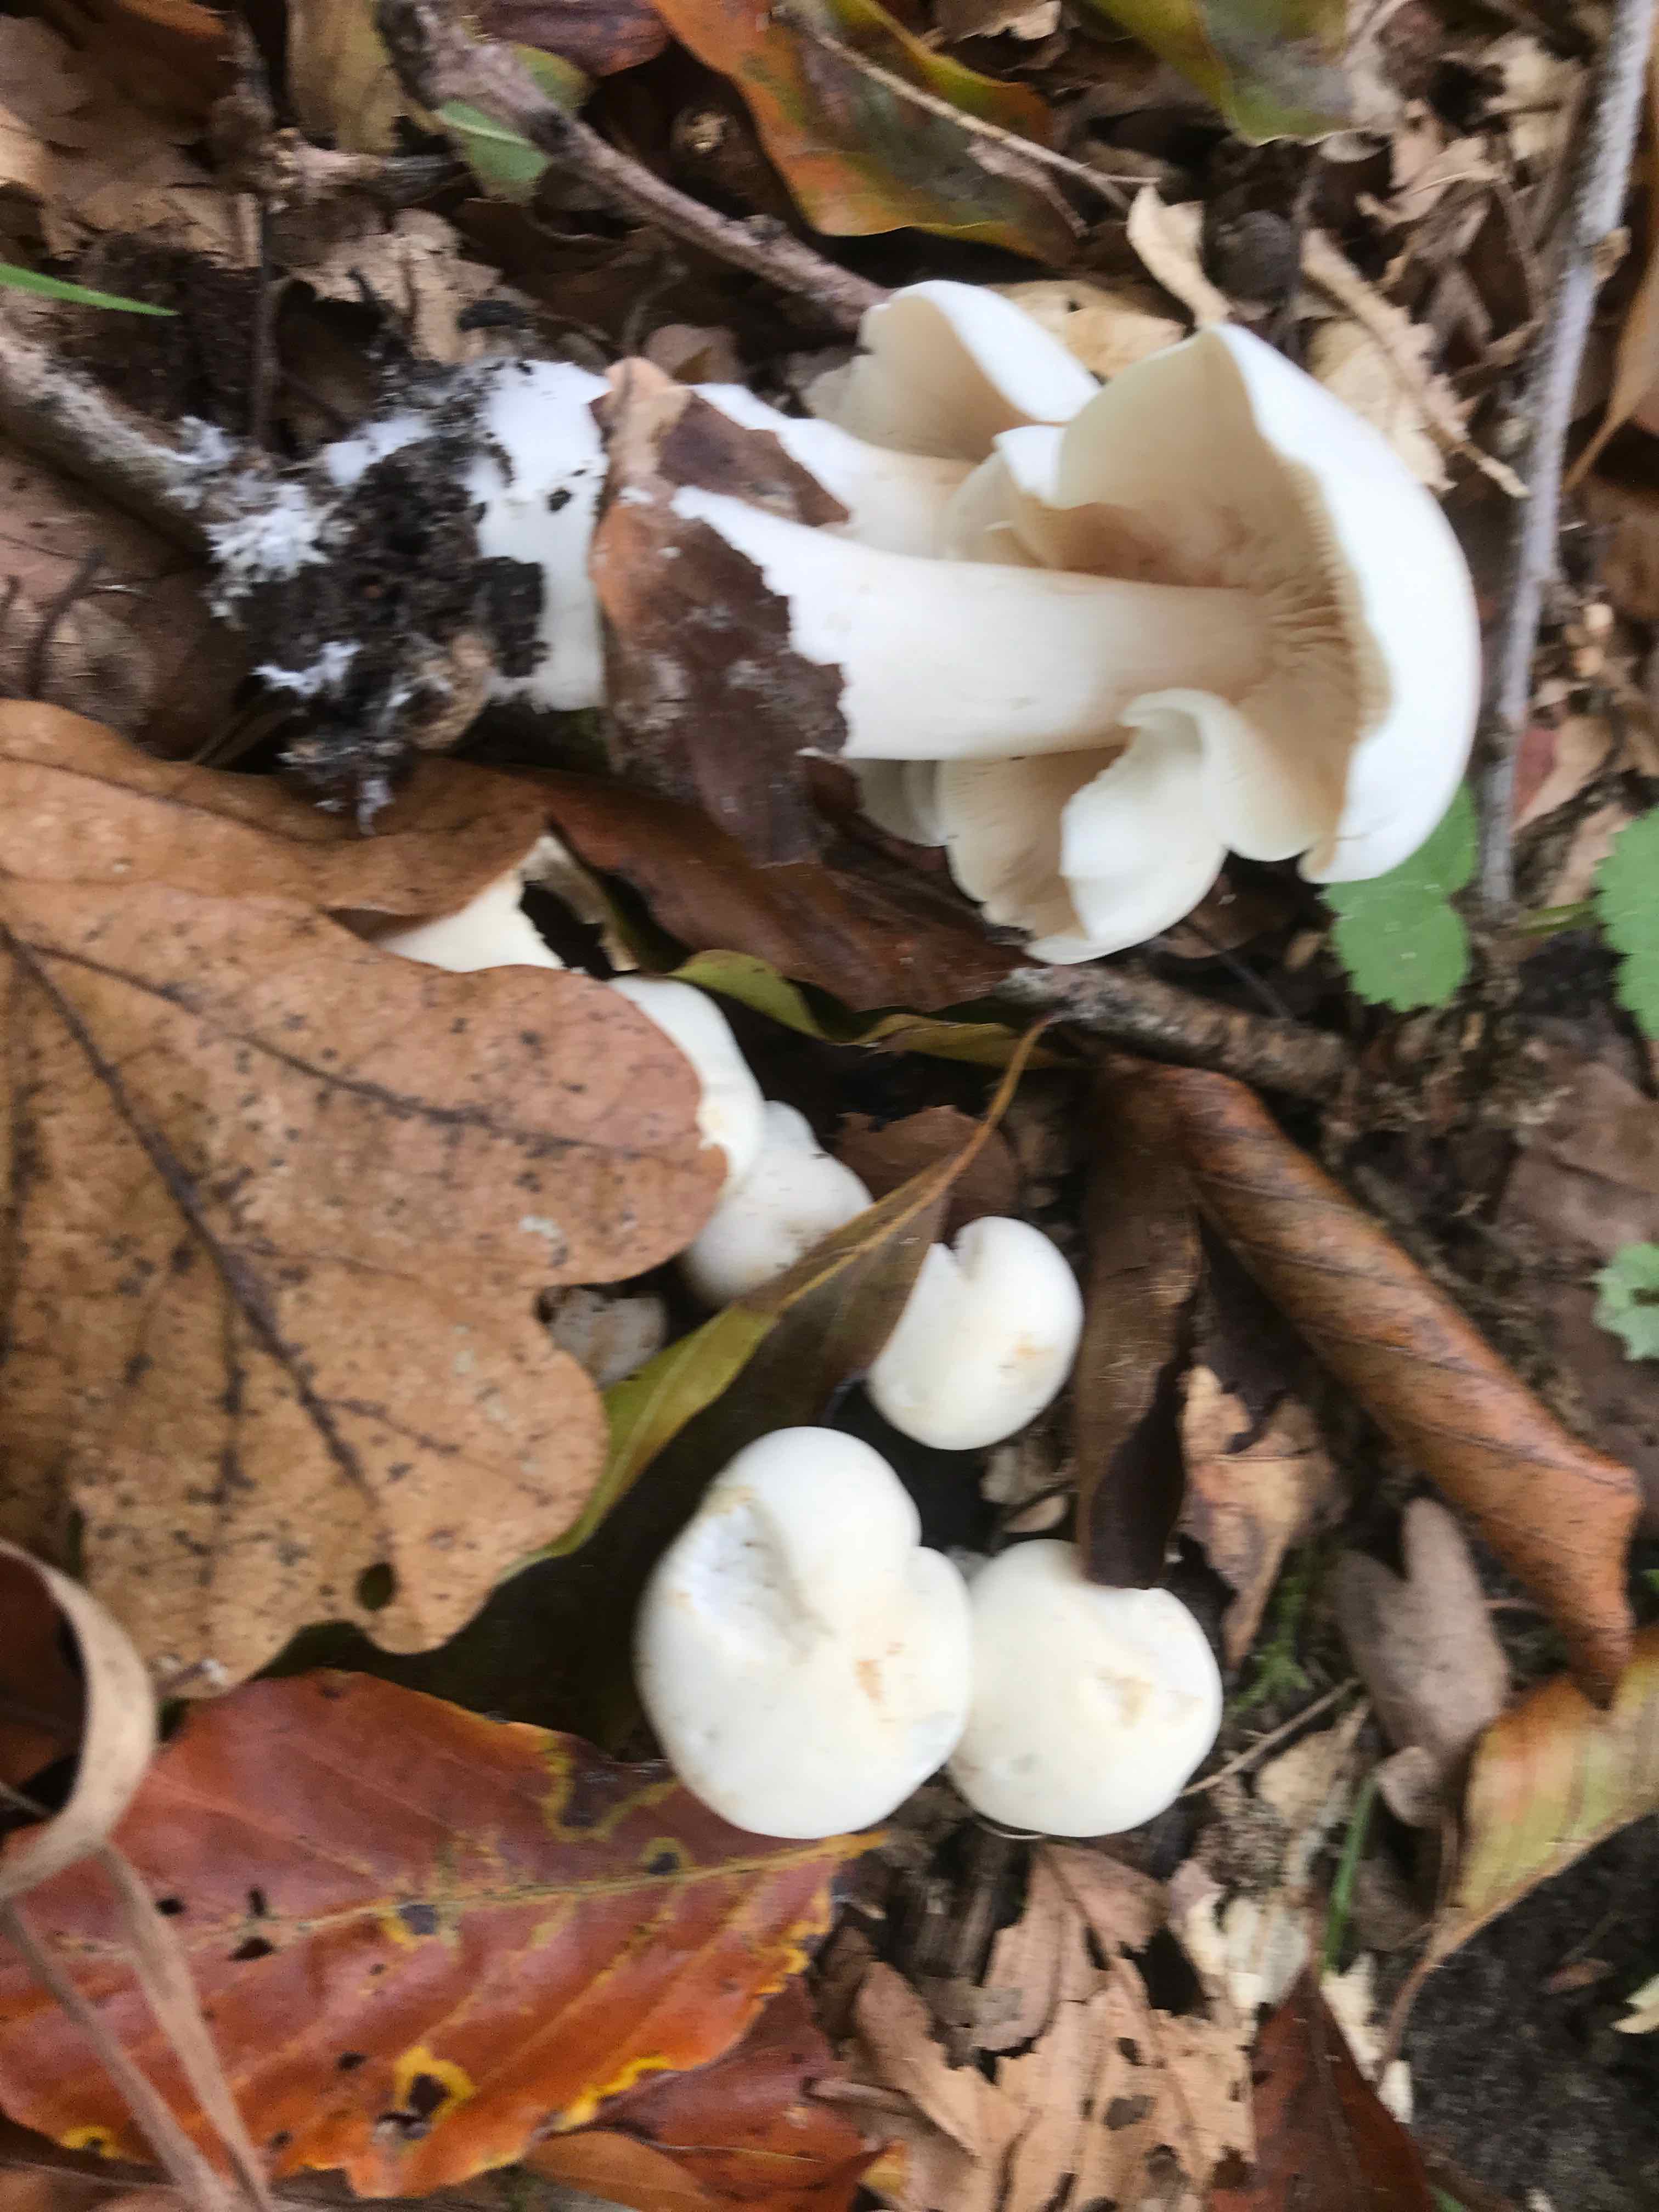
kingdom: Fungi
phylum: Basidiomycota
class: Agaricomycetes
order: Agaricales
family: Tricholomataceae
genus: Tricholoma
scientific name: Tricholoma album
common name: honning-ridderhat
